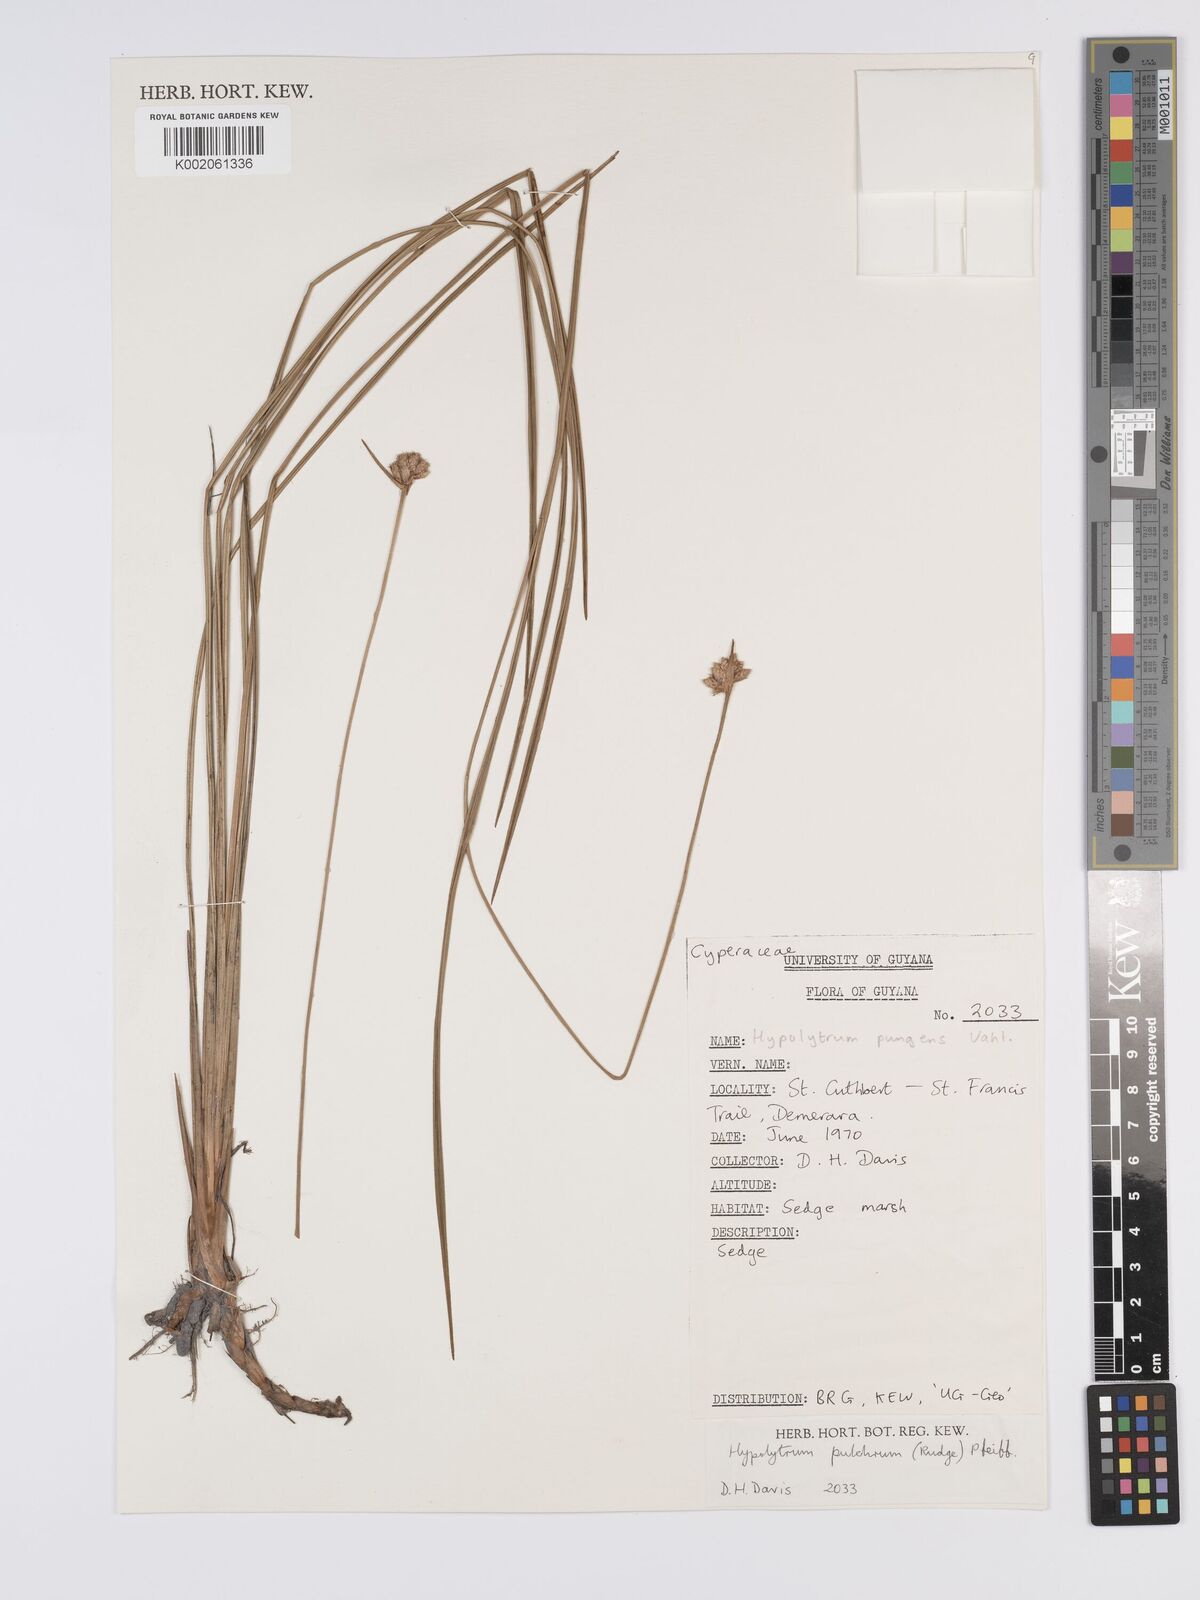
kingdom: Plantae
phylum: Tracheophyta
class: Liliopsida
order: Poales
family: Cyperaceae
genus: Hypolytrum
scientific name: Hypolytrum pulchrum
